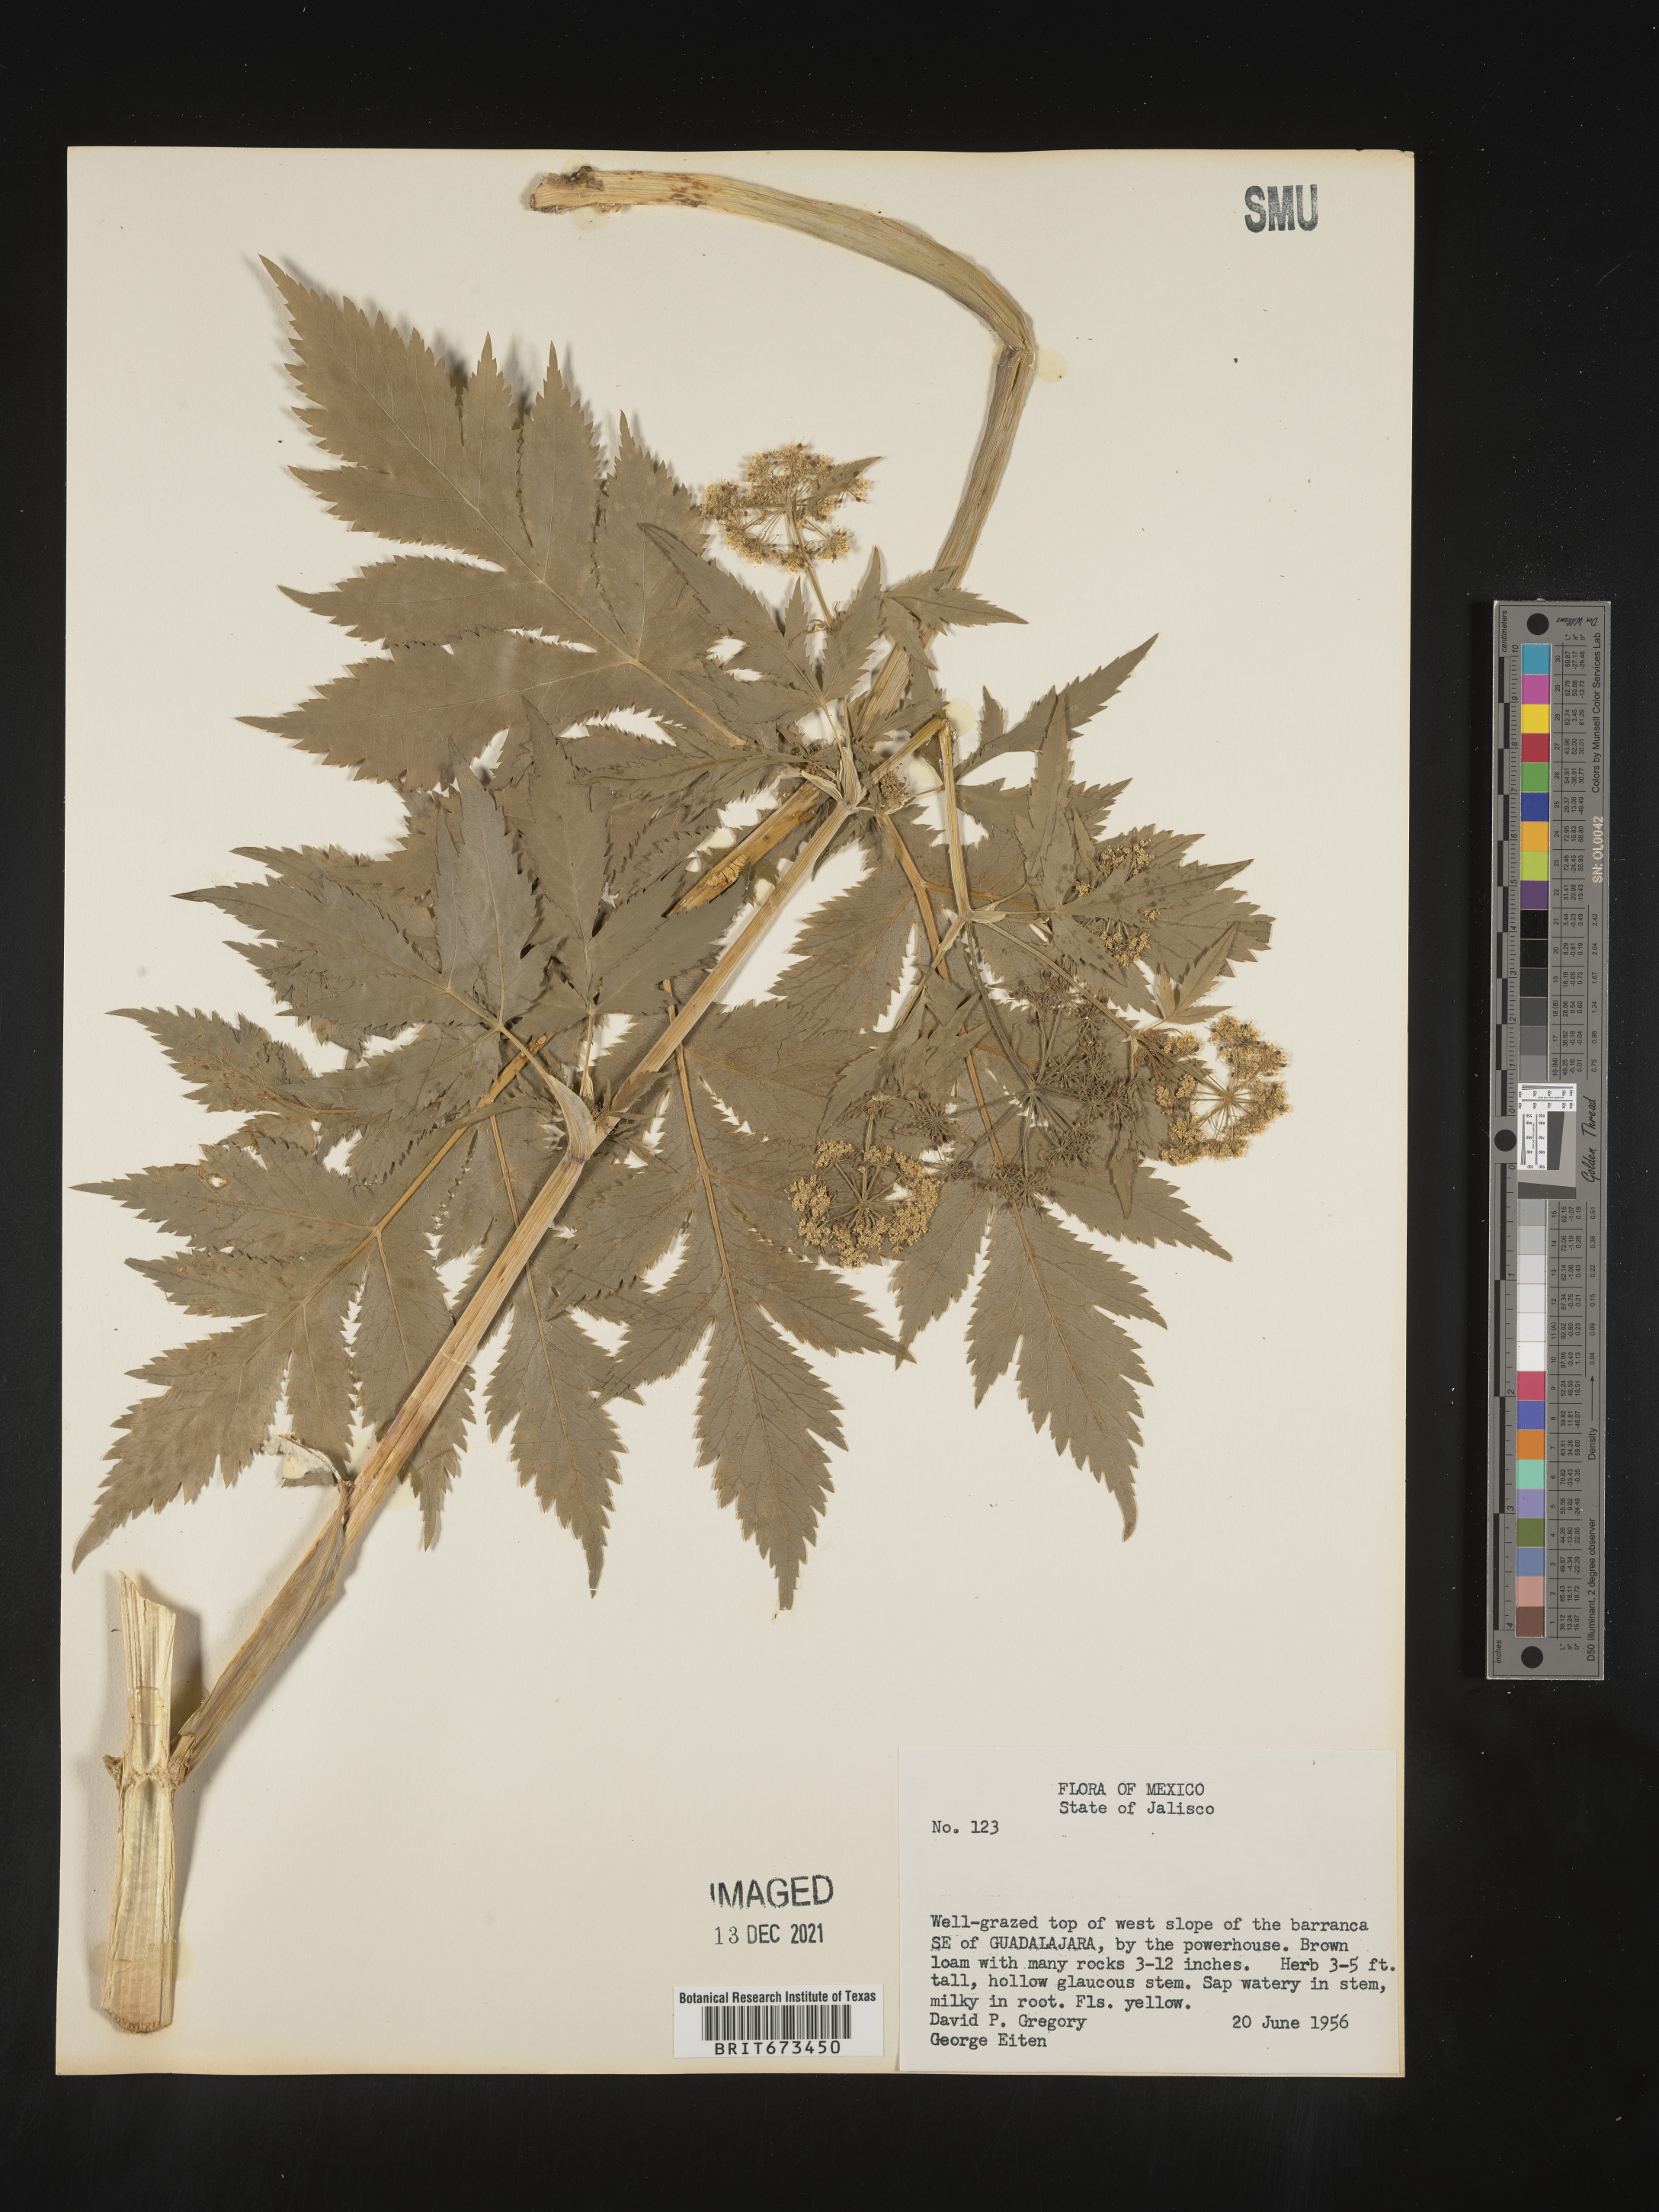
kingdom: Plantae
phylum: Tracheophyta
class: Magnoliopsida
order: Apiales
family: Apiaceae
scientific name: Apiaceae
